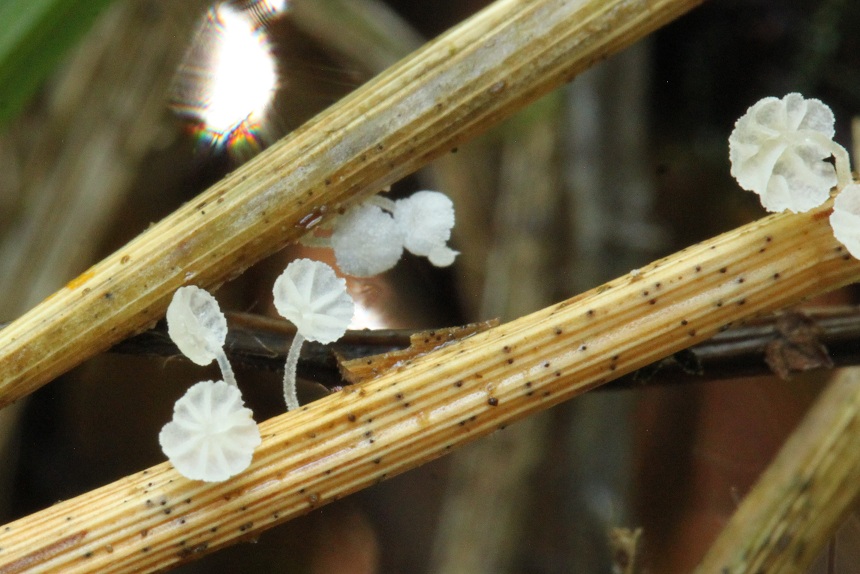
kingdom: Fungi
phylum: Basidiomycota
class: Agaricomycetes
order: Agaricales
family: Mycenaceae
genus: Resinomycena
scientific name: Resinomycena saccharifera
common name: sukkerhat
